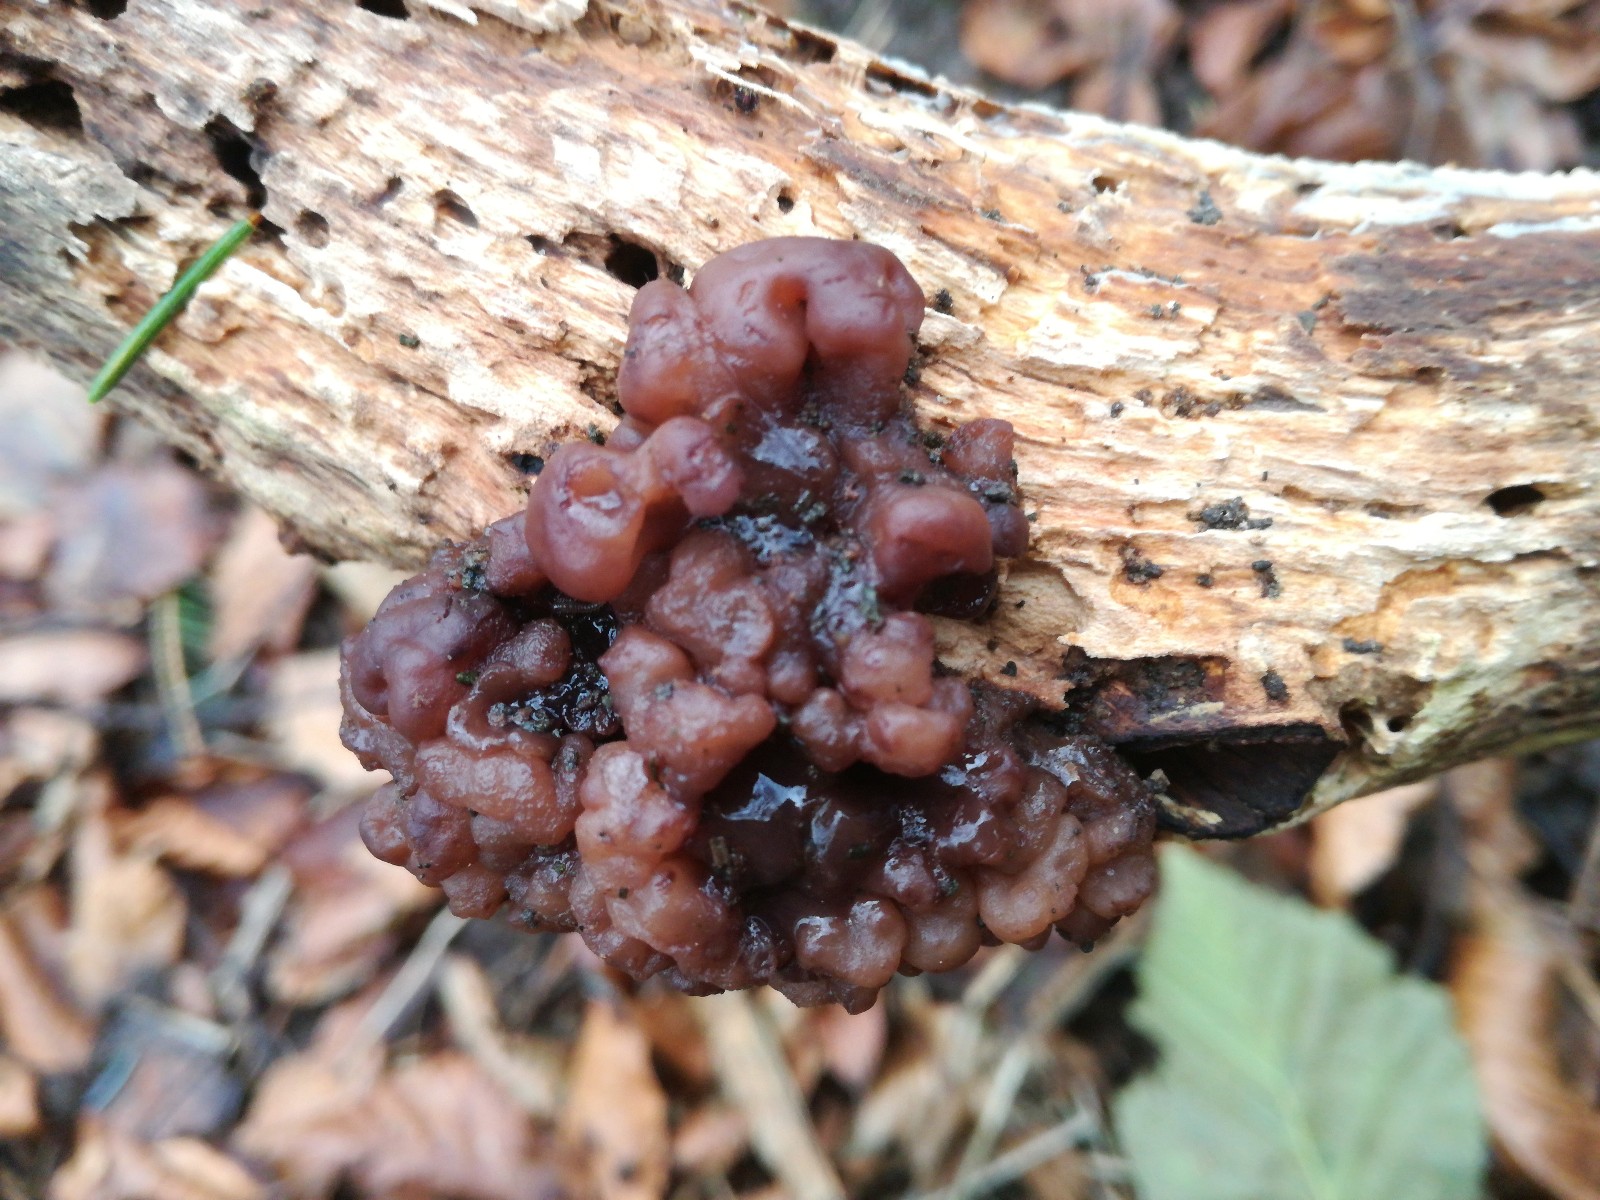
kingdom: Fungi
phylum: Ascomycota
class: Leotiomycetes
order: Helotiales
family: Gelatinodiscaceae
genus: Ascotremella
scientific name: Ascotremella faginea
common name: hjerne-bævreskive
